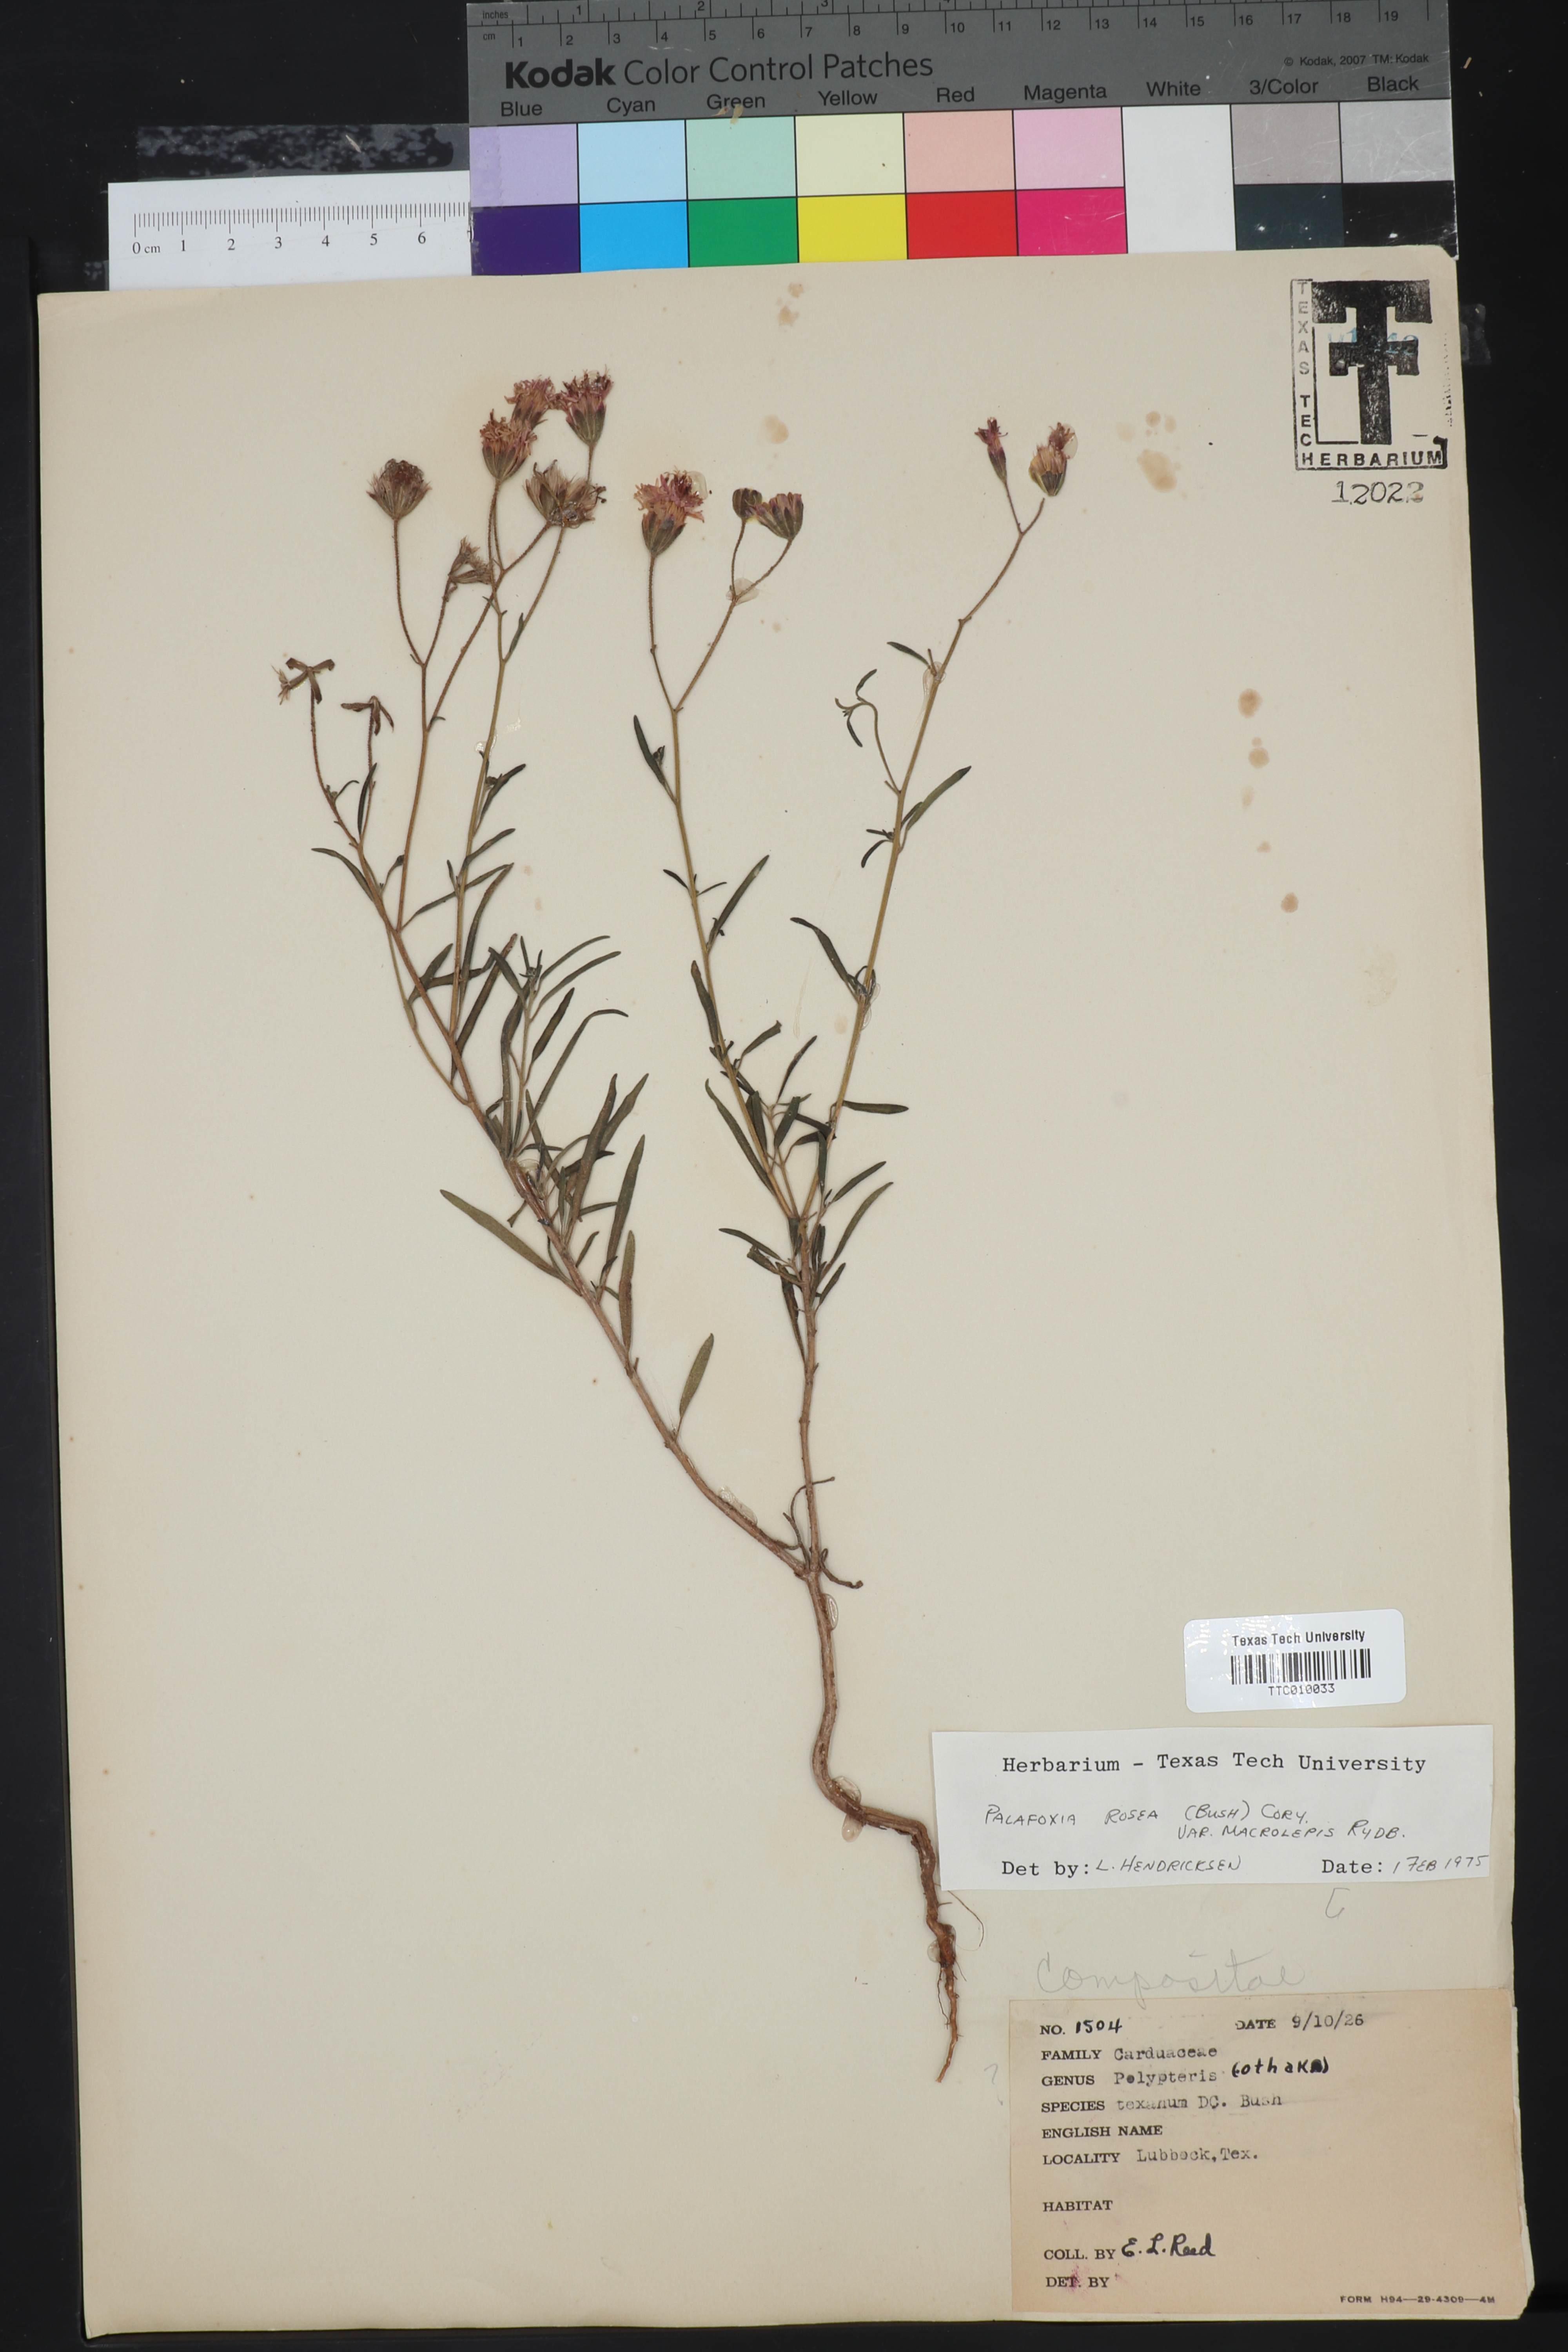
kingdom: Plantae
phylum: Tracheophyta
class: Magnoliopsida
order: Asterales
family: Asteraceae
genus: Palafoxia
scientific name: Palafoxia rosea
